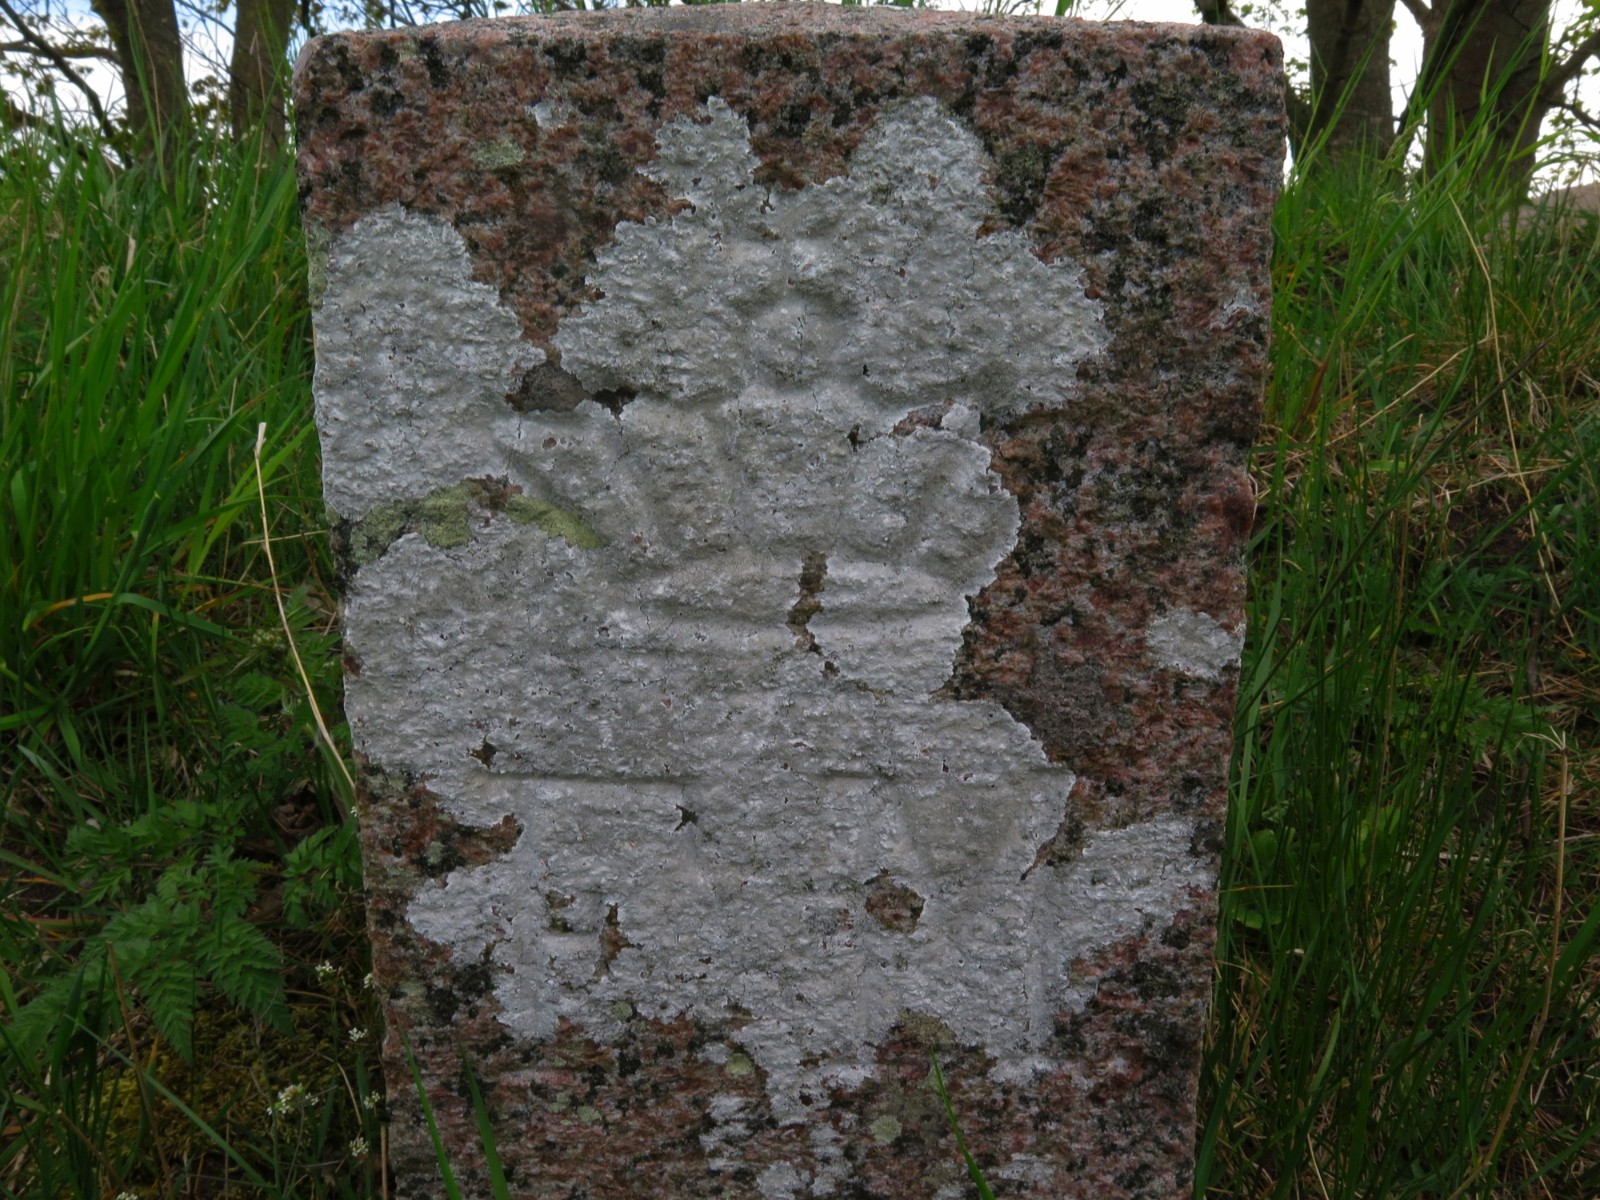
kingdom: Fungi
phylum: Ascomycota
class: Lecanoromycetes
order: Lecanorales
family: Lecanoraceae
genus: Glaucomaria
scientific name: Glaucomaria rupicola
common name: stengærde-kantskivelav
